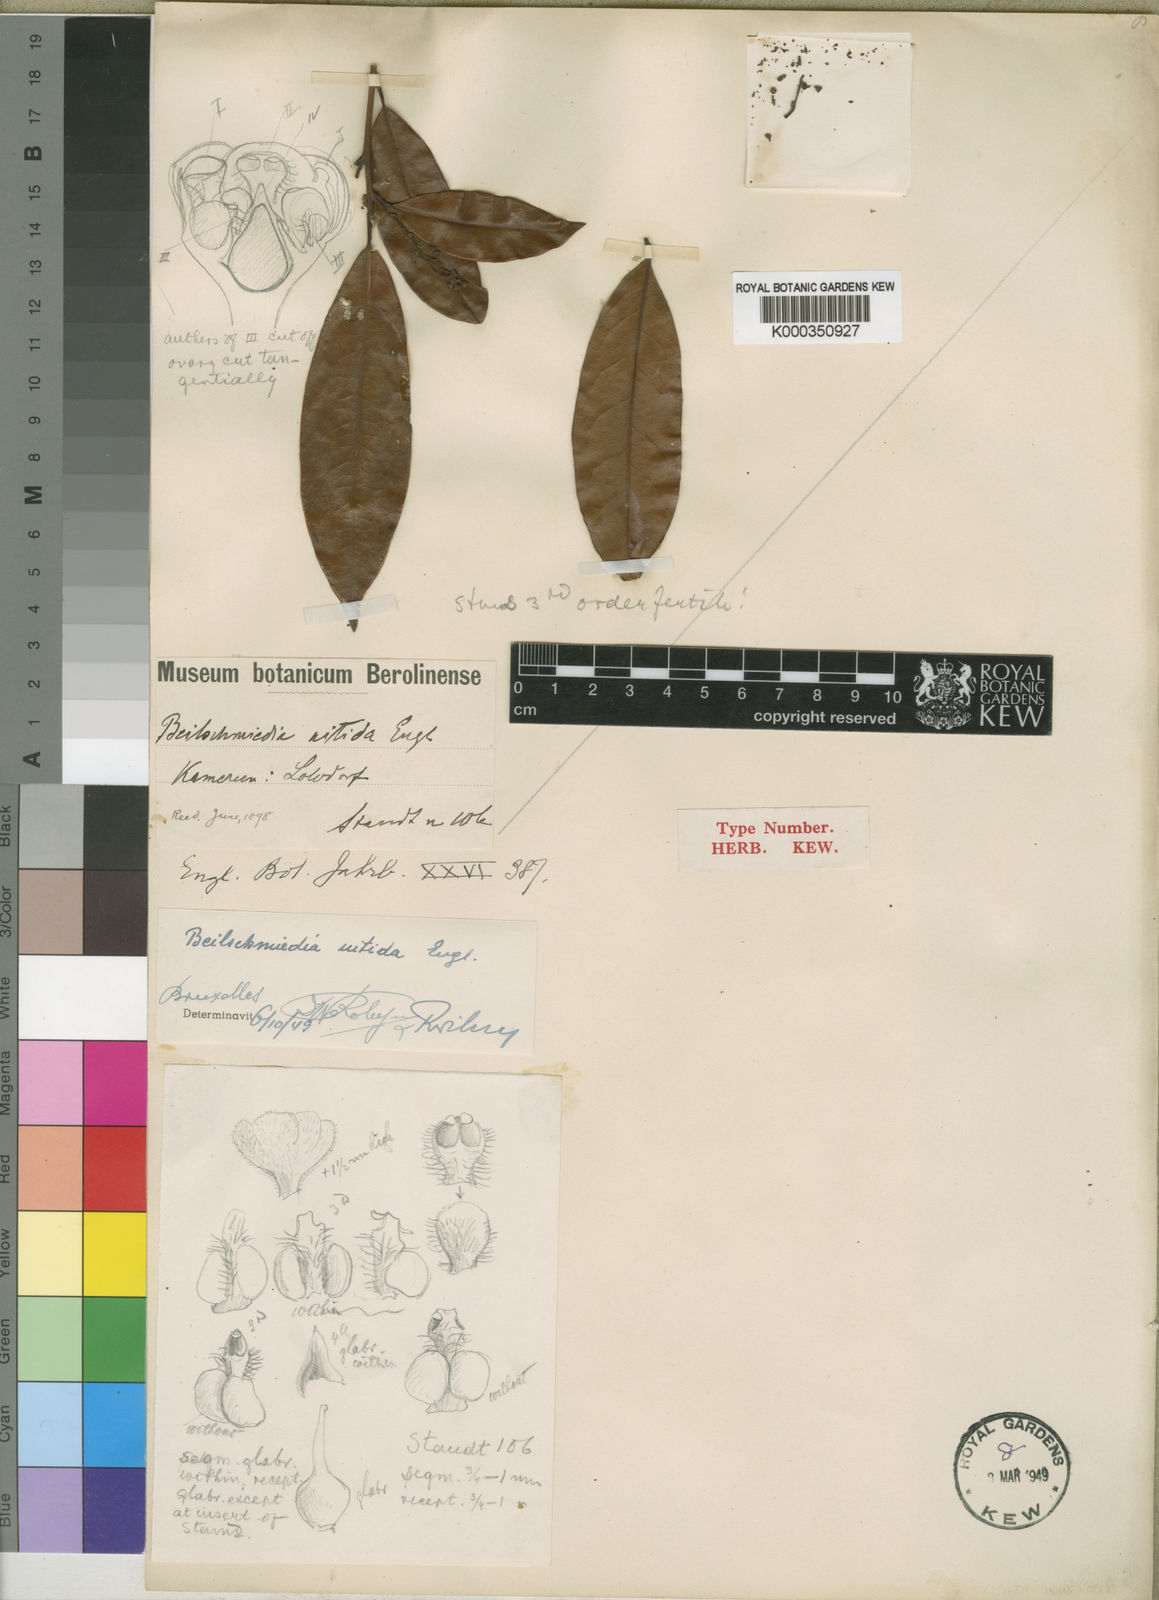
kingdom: Plantae
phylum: Tracheophyta
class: Magnoliopsida
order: Laurales
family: Lauraceae
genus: Beilschmiedia
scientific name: Beilschmiedia nitida
